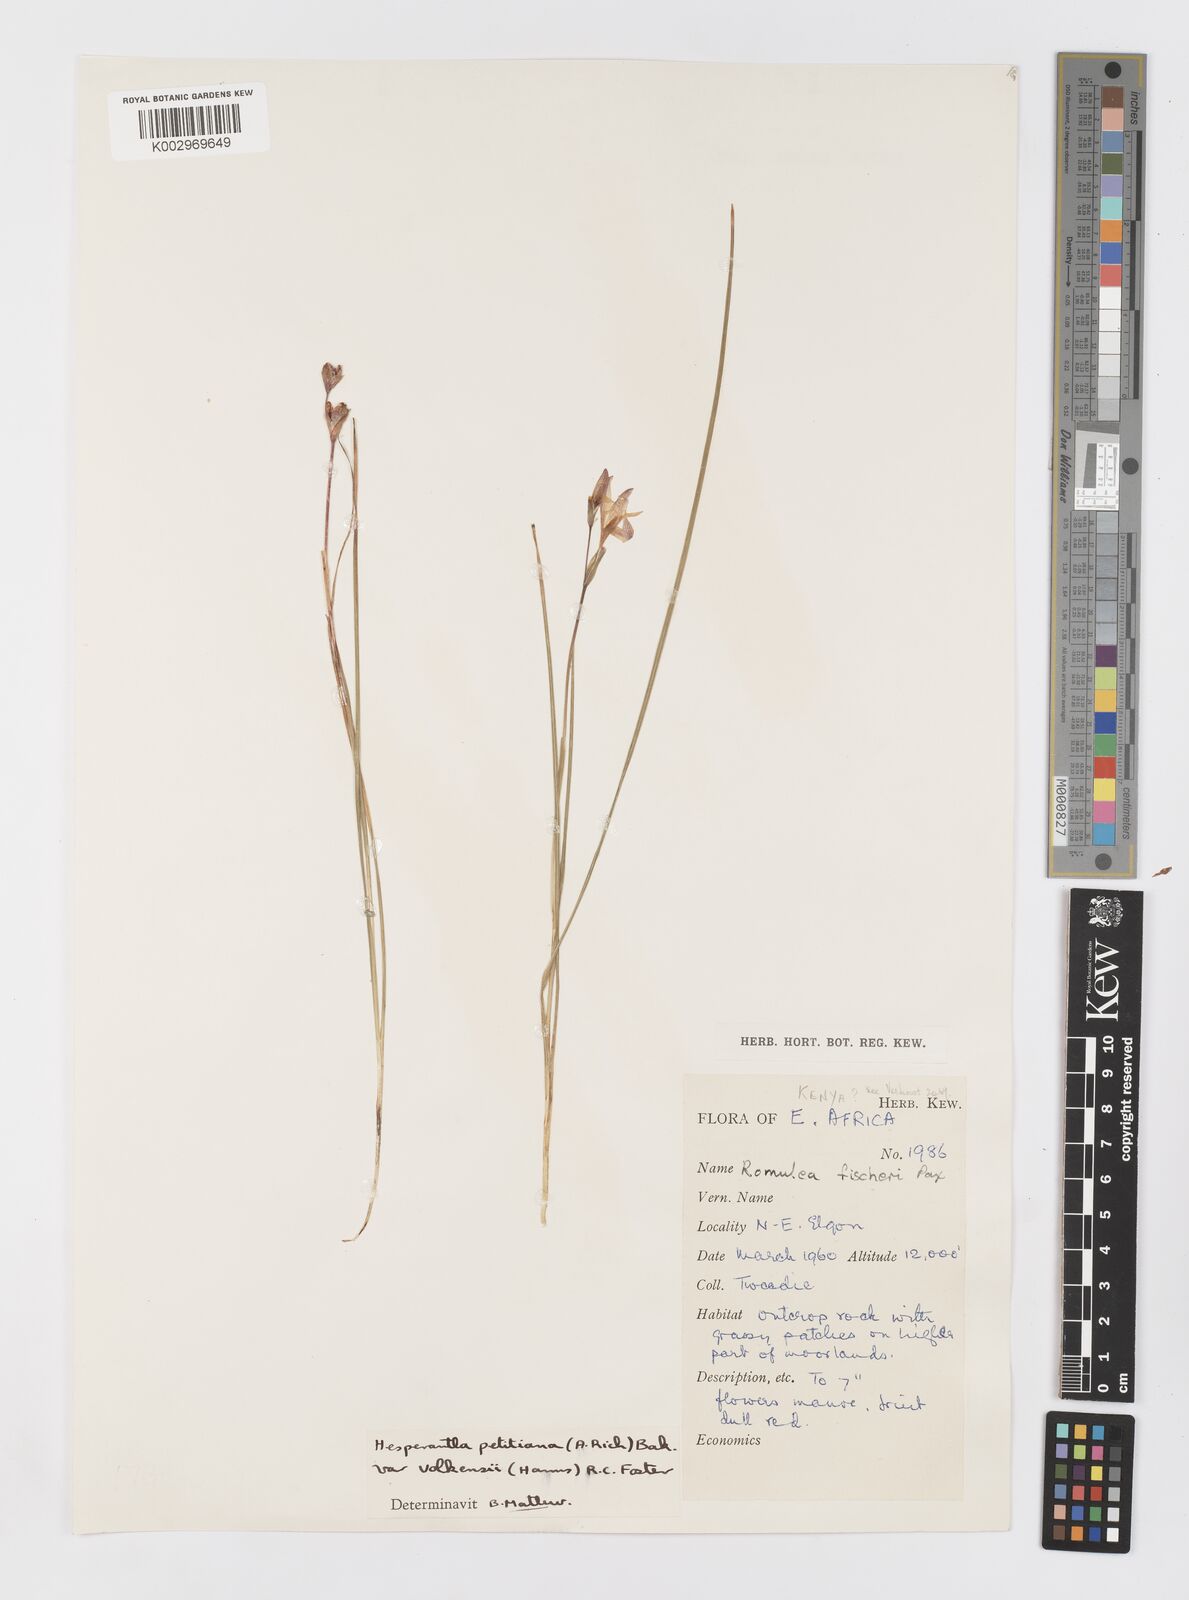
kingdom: Plantae
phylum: Tracheophyta
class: Liliopsida
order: Asparagales
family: Iridaceae
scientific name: Iridaceae
